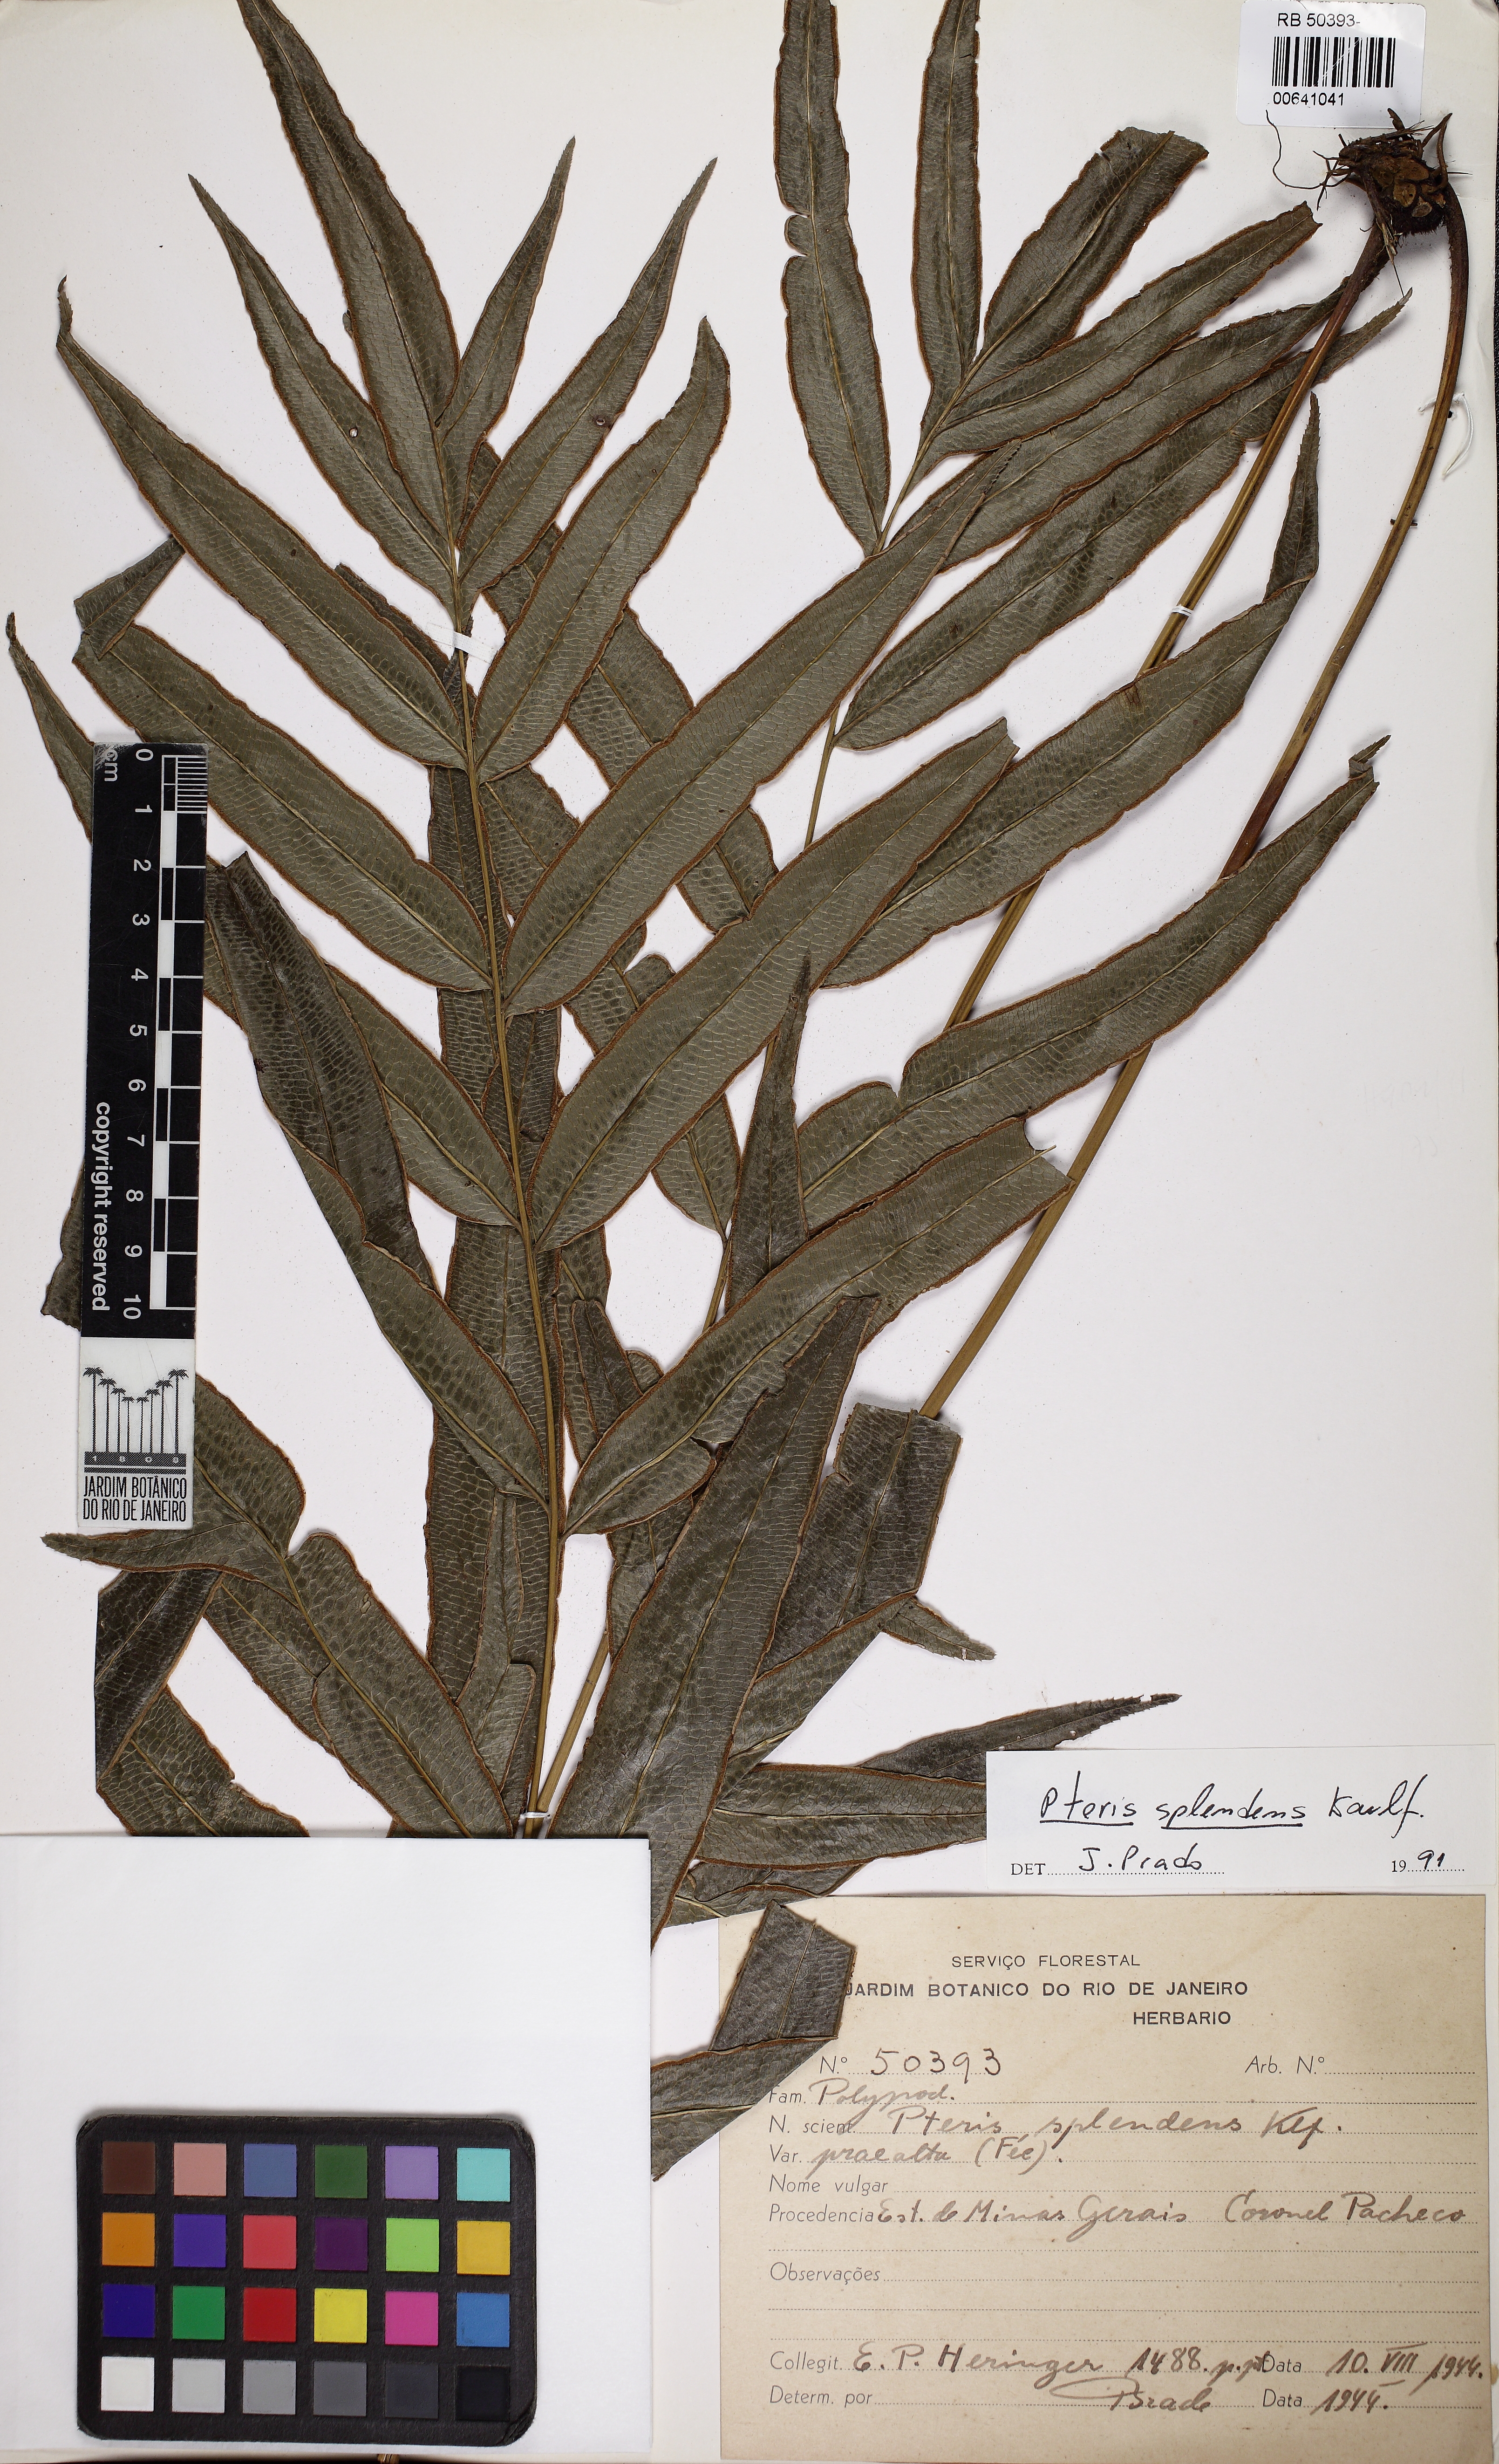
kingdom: Plantae
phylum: Tracheophyta
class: Polypodiopsida
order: Polypodiales
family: Pteridaceae
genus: Pteris
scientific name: Pteris splendens
